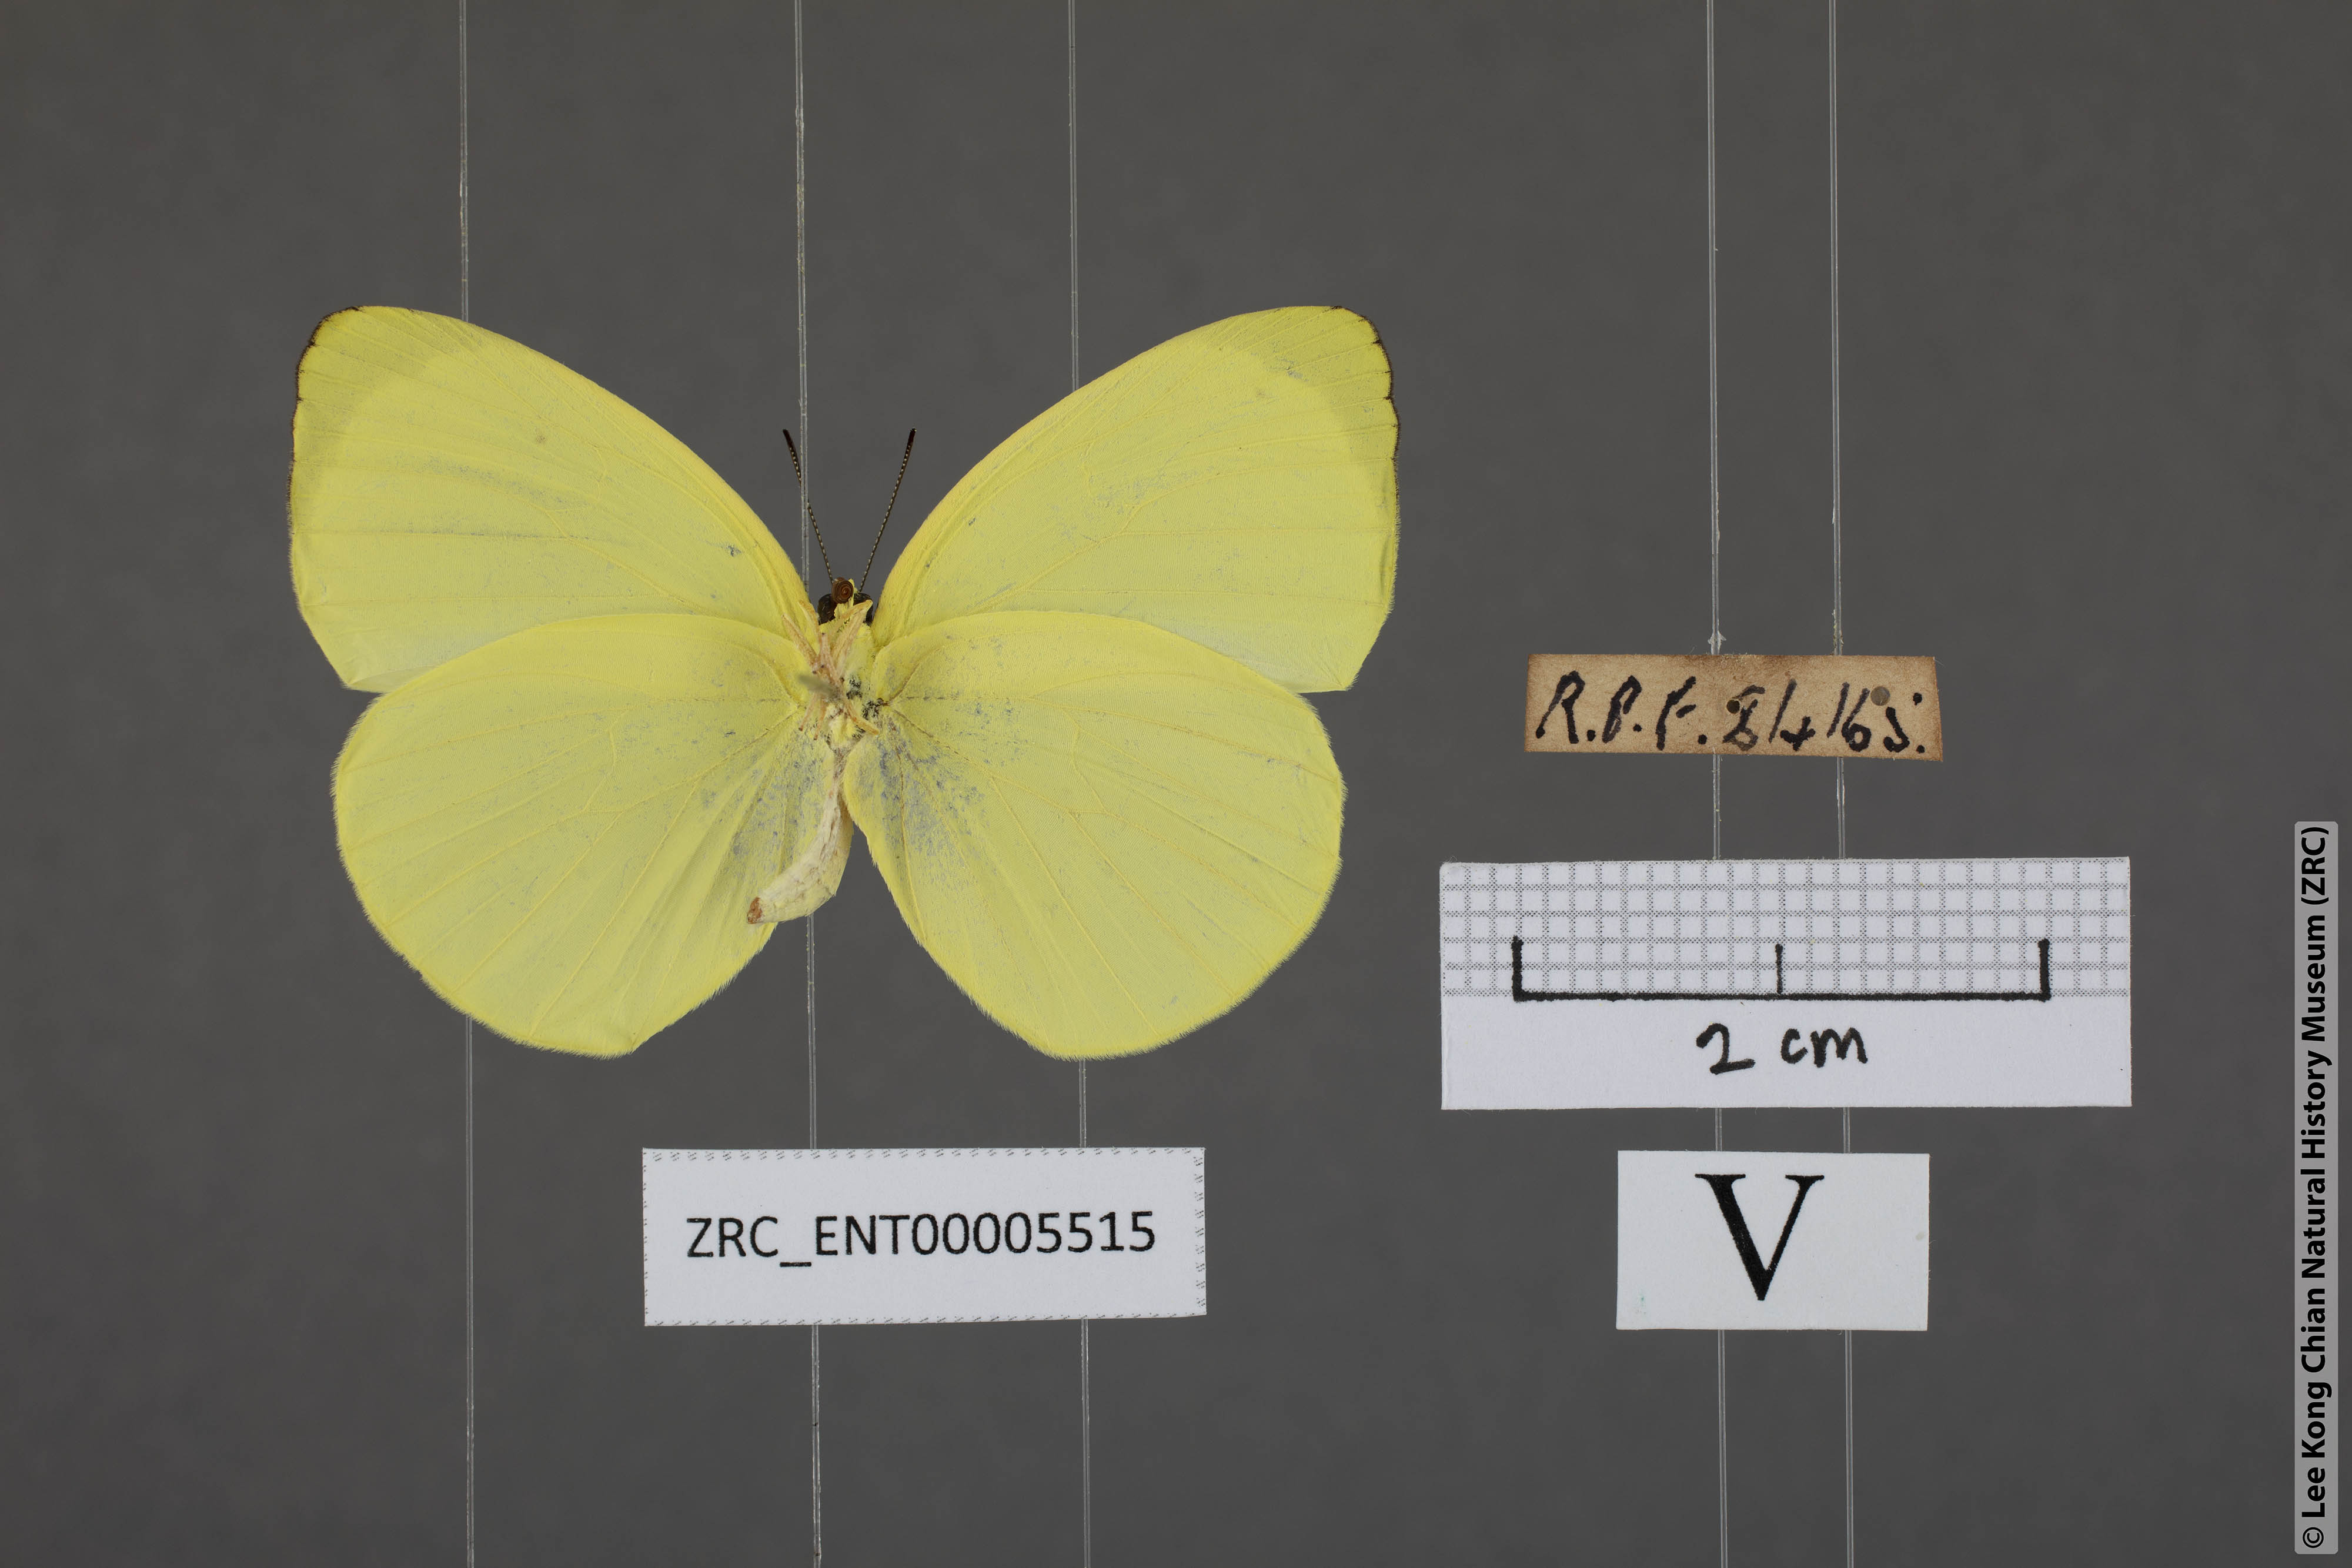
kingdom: Animalia
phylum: Arthropoda
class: Insecta
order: Lepidoptera
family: Pieridae
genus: Gandaca
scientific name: Gandaca harina
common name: Tree yellow
